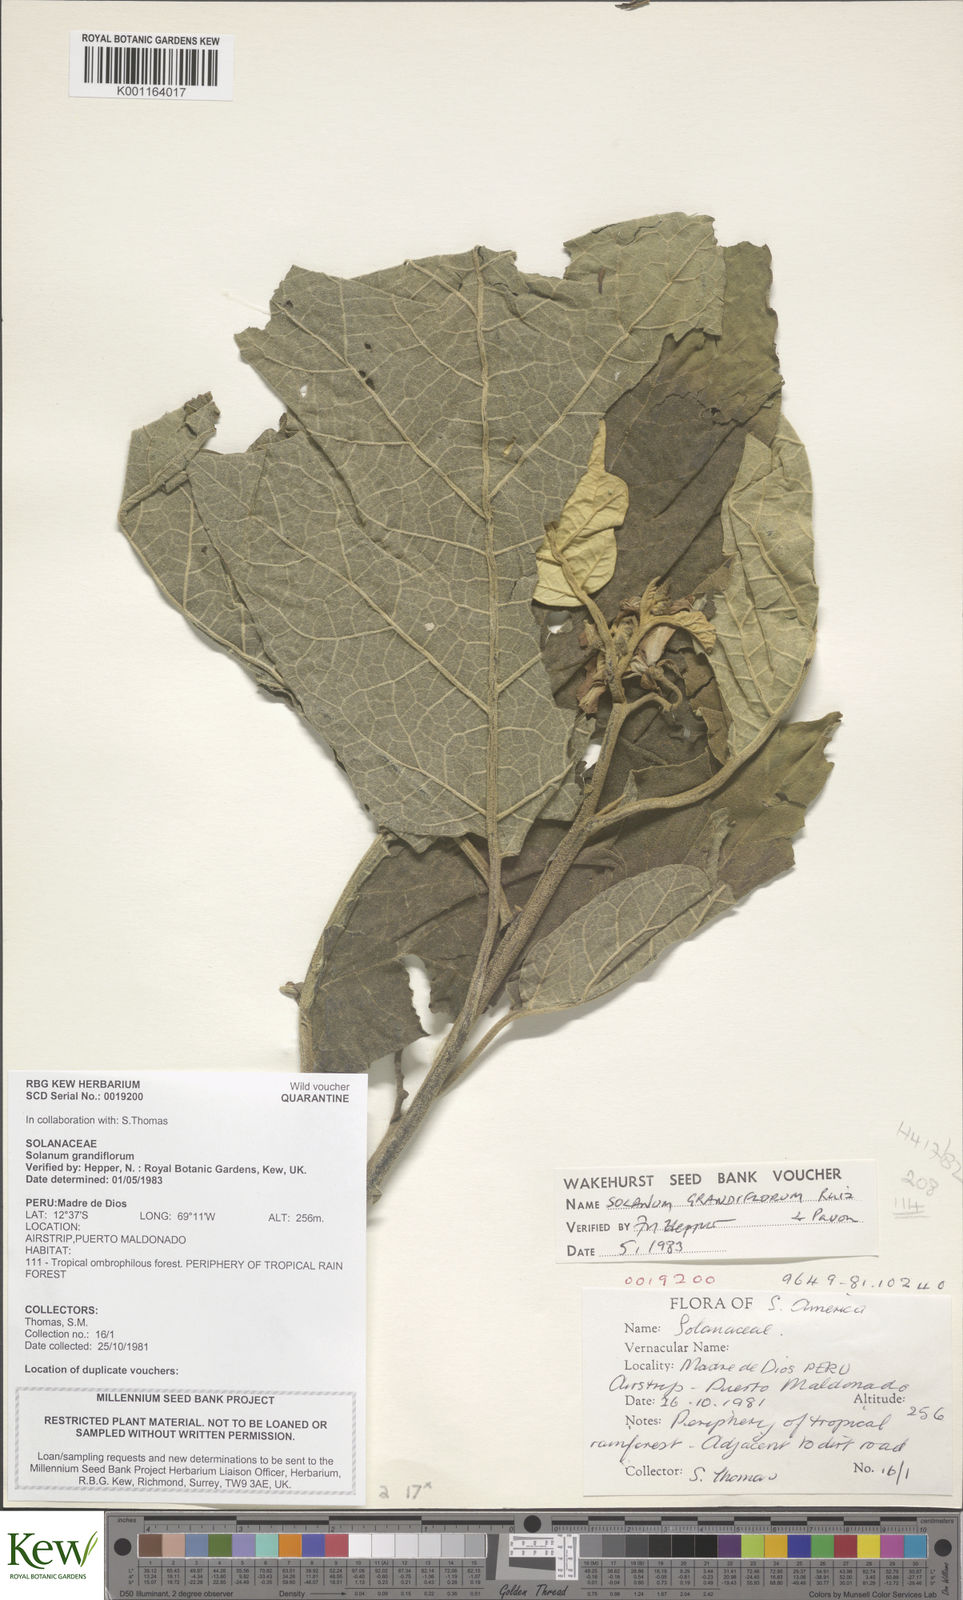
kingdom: Plantae
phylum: Tracheophyta
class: Magnoliopsida
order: Solanales
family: Solanaceae
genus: Solanum
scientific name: Solanum grandiflorum
